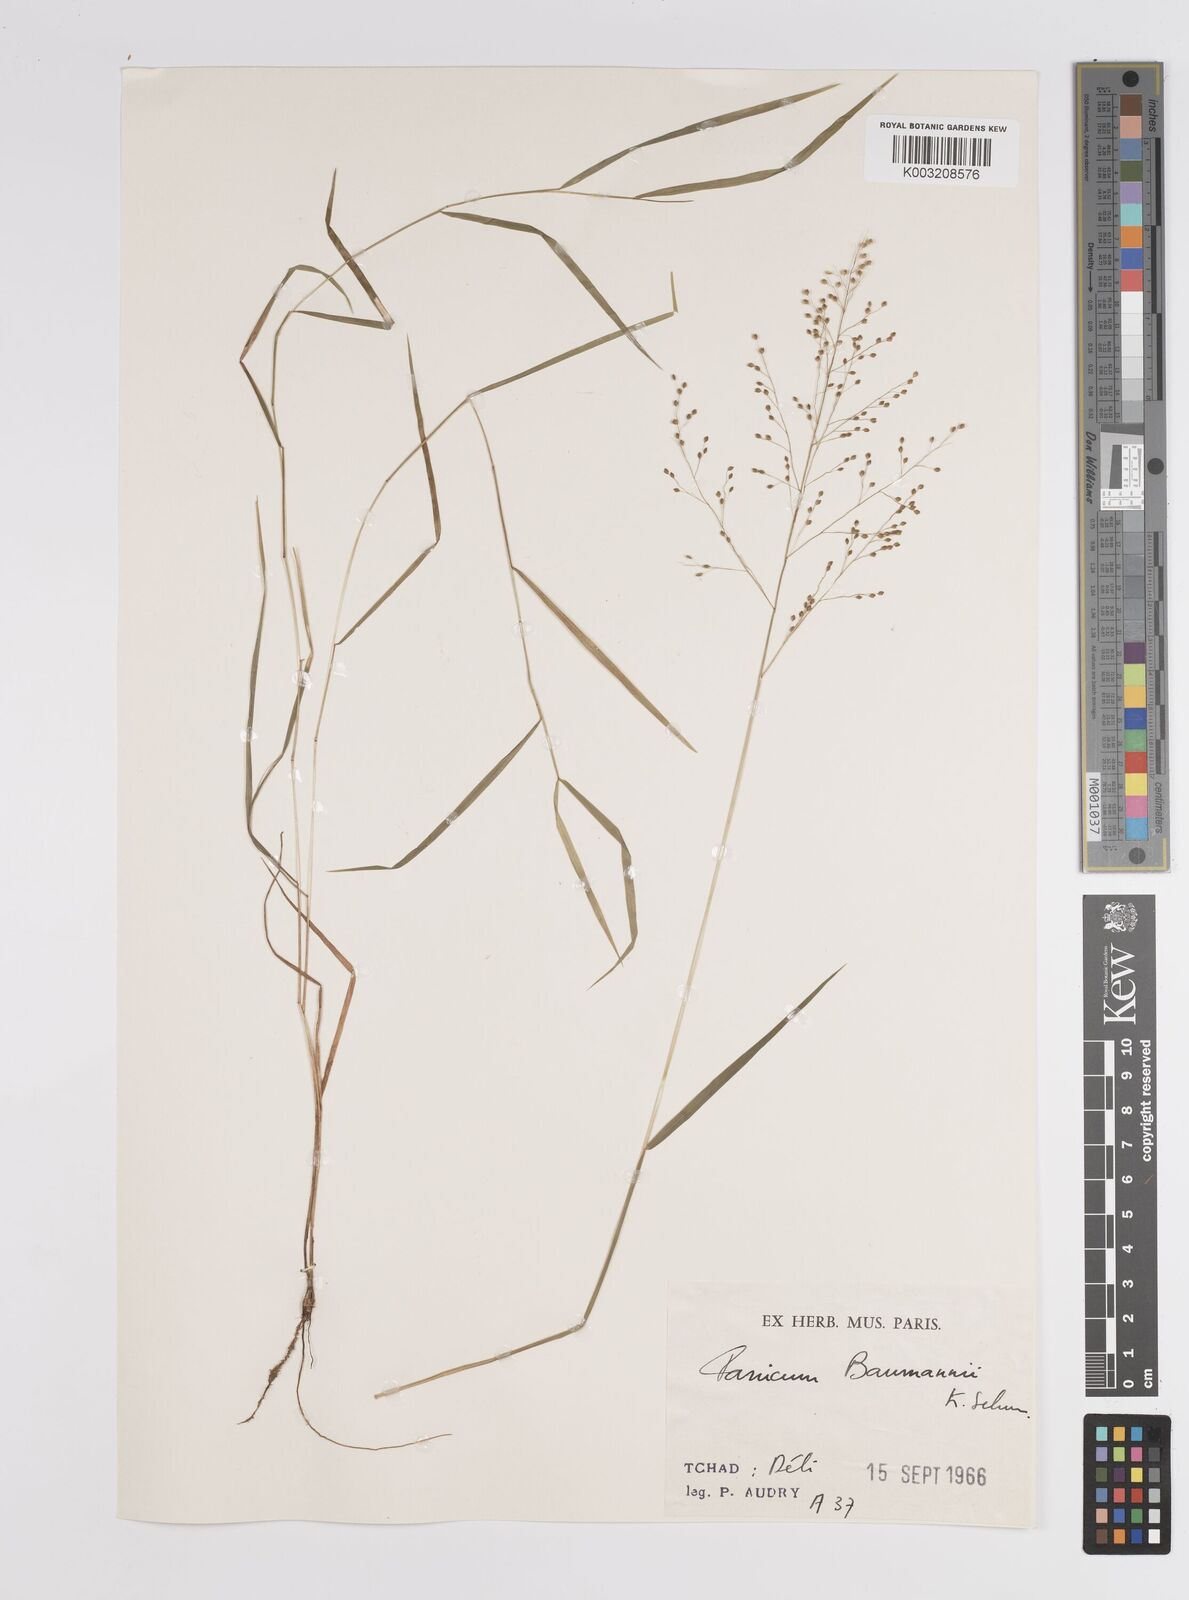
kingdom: Plantae
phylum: Tracheophyta
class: Liliopsida
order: Poales
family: Poaceae
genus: Trichanthecium
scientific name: Trichanthecium nervatum
